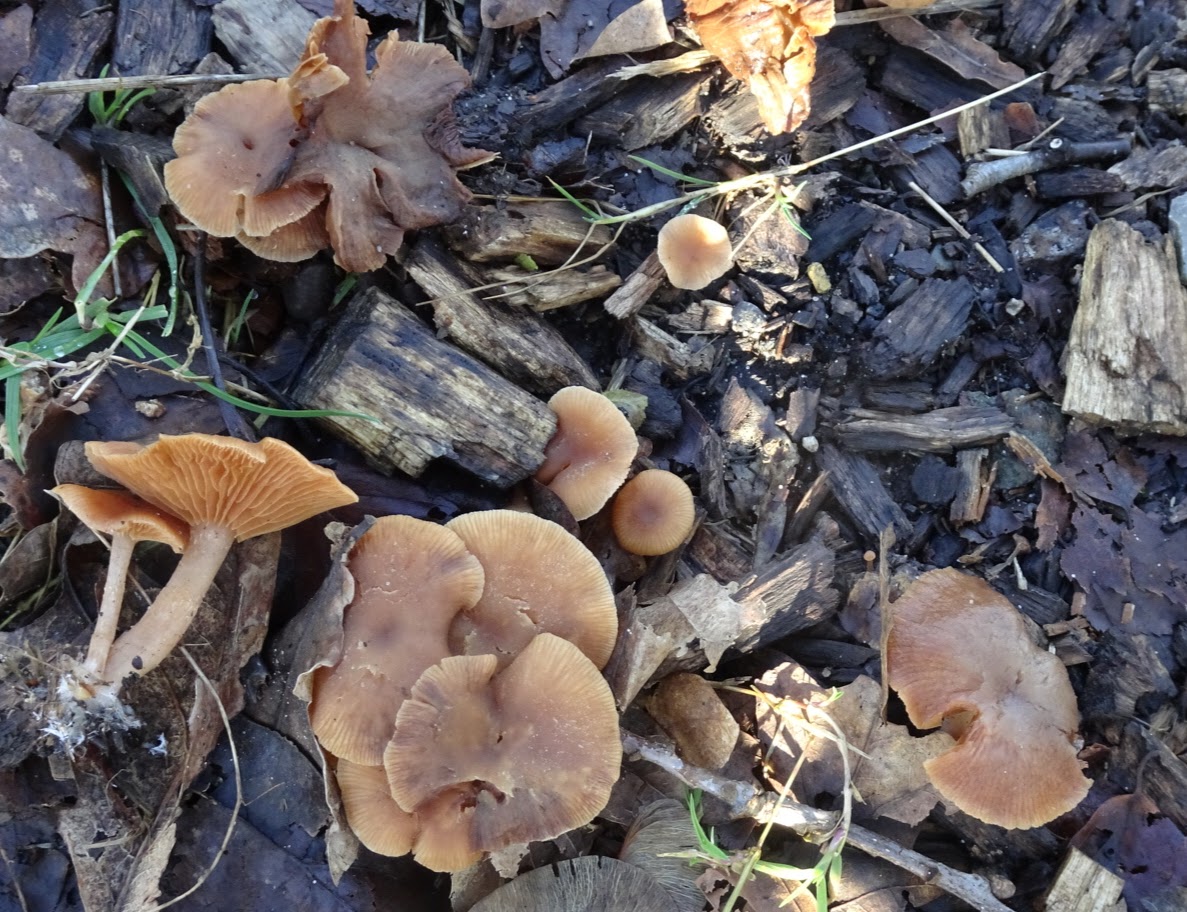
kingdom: Fungi
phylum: Basidiomycota
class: Agaricomycetes
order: Agaricales
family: Tubariaceae
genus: Tubaria
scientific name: Tubaria furfuracea
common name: kliddet fnughat
